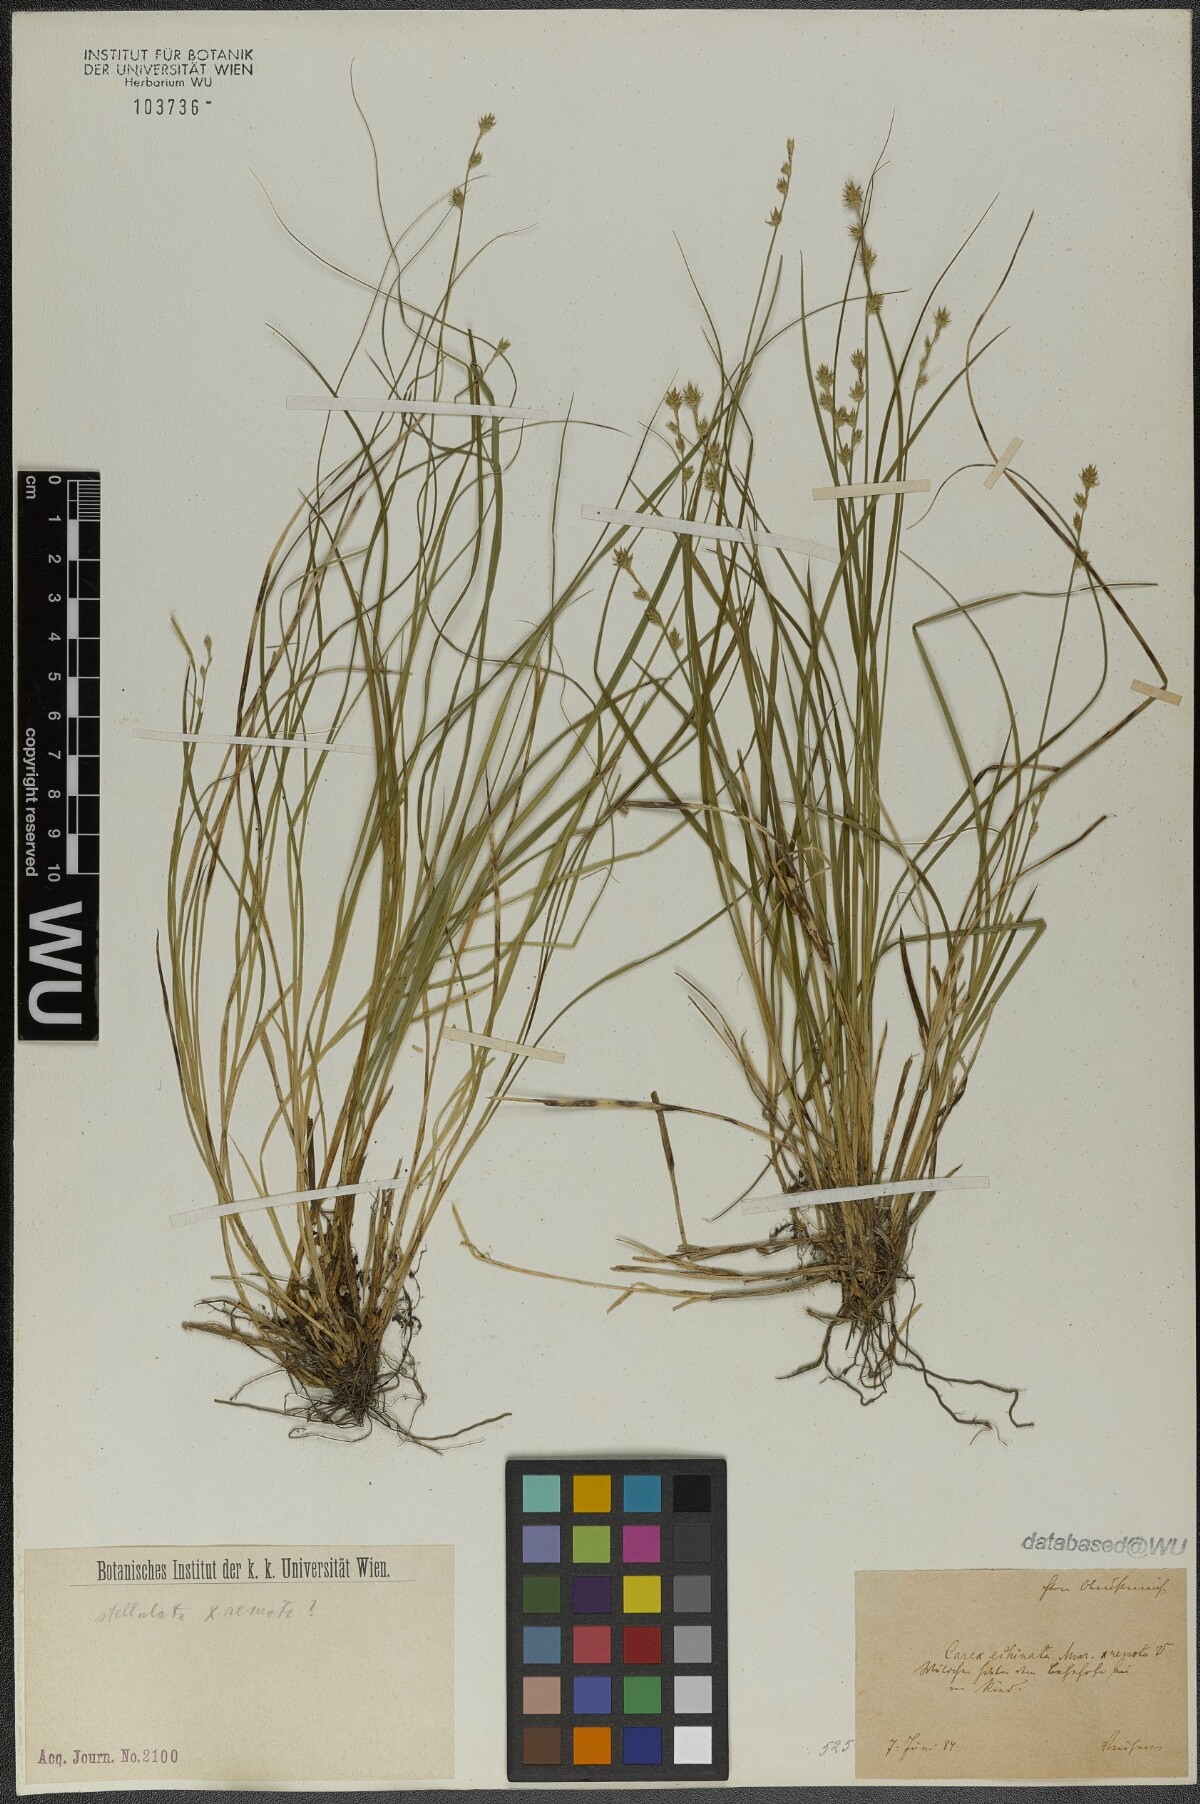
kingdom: Plantae
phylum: Tracheophyta
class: Liliopsida
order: Poales
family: Cyperaceae
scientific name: Cyperaceae
